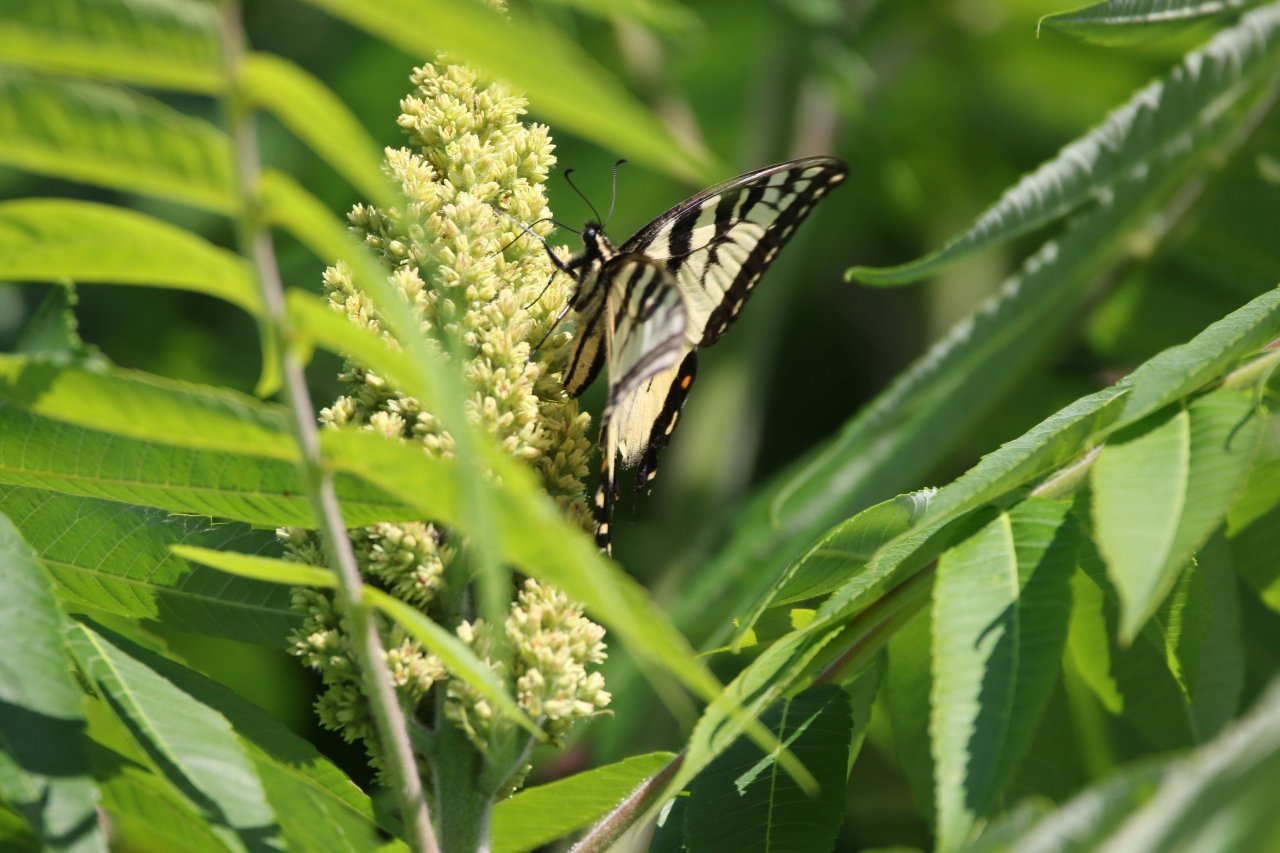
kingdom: Animalia
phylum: Arthropoda
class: Insecta
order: Lepidoptera
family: Papilionidae
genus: Pterourus
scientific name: Pterourus glaucus
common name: Eastern Tiger Swallowtail
